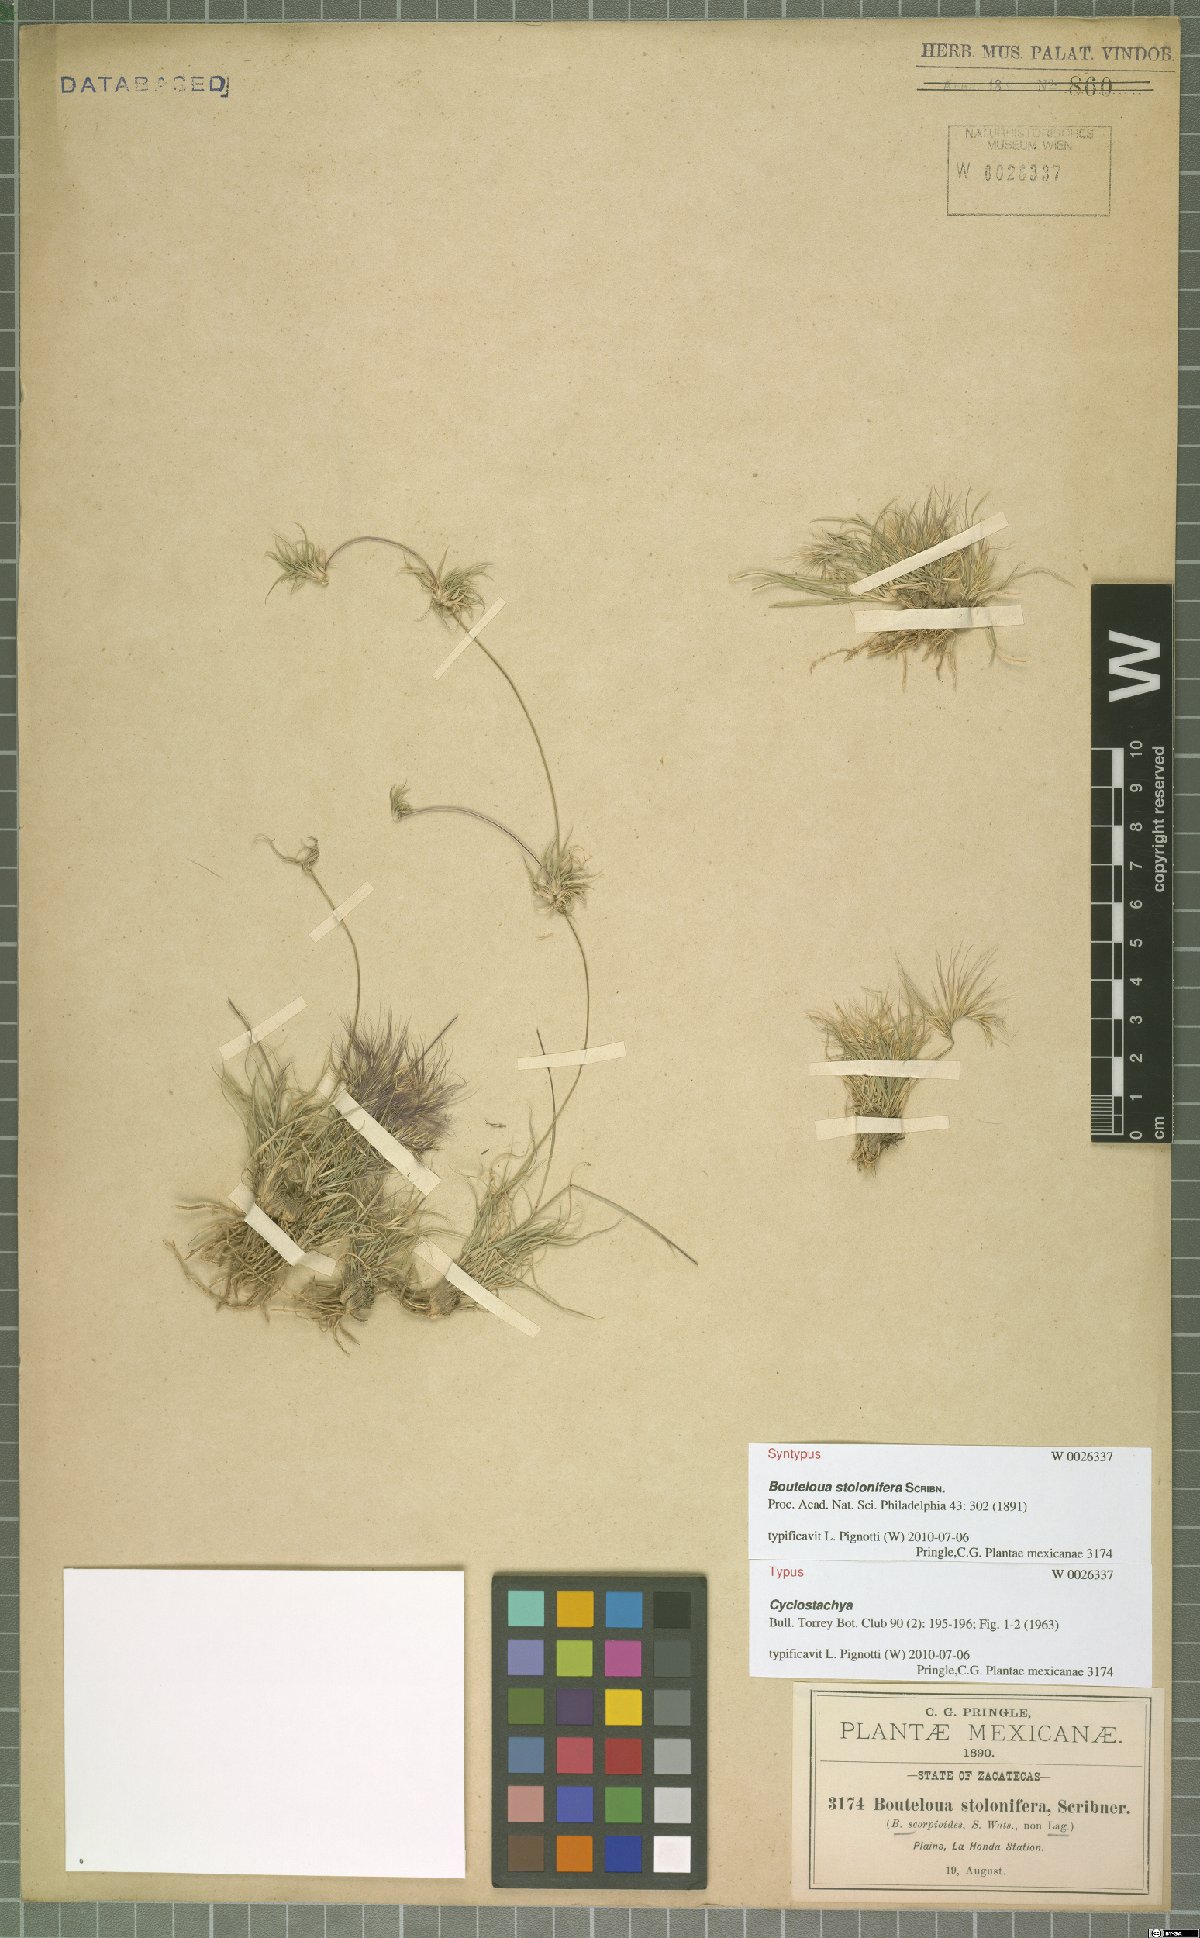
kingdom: Plantae
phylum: Tracheophyta
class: Liliopsida
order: Poales
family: Poaceae
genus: Bouteloua
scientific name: Bouteloua stolonifera
